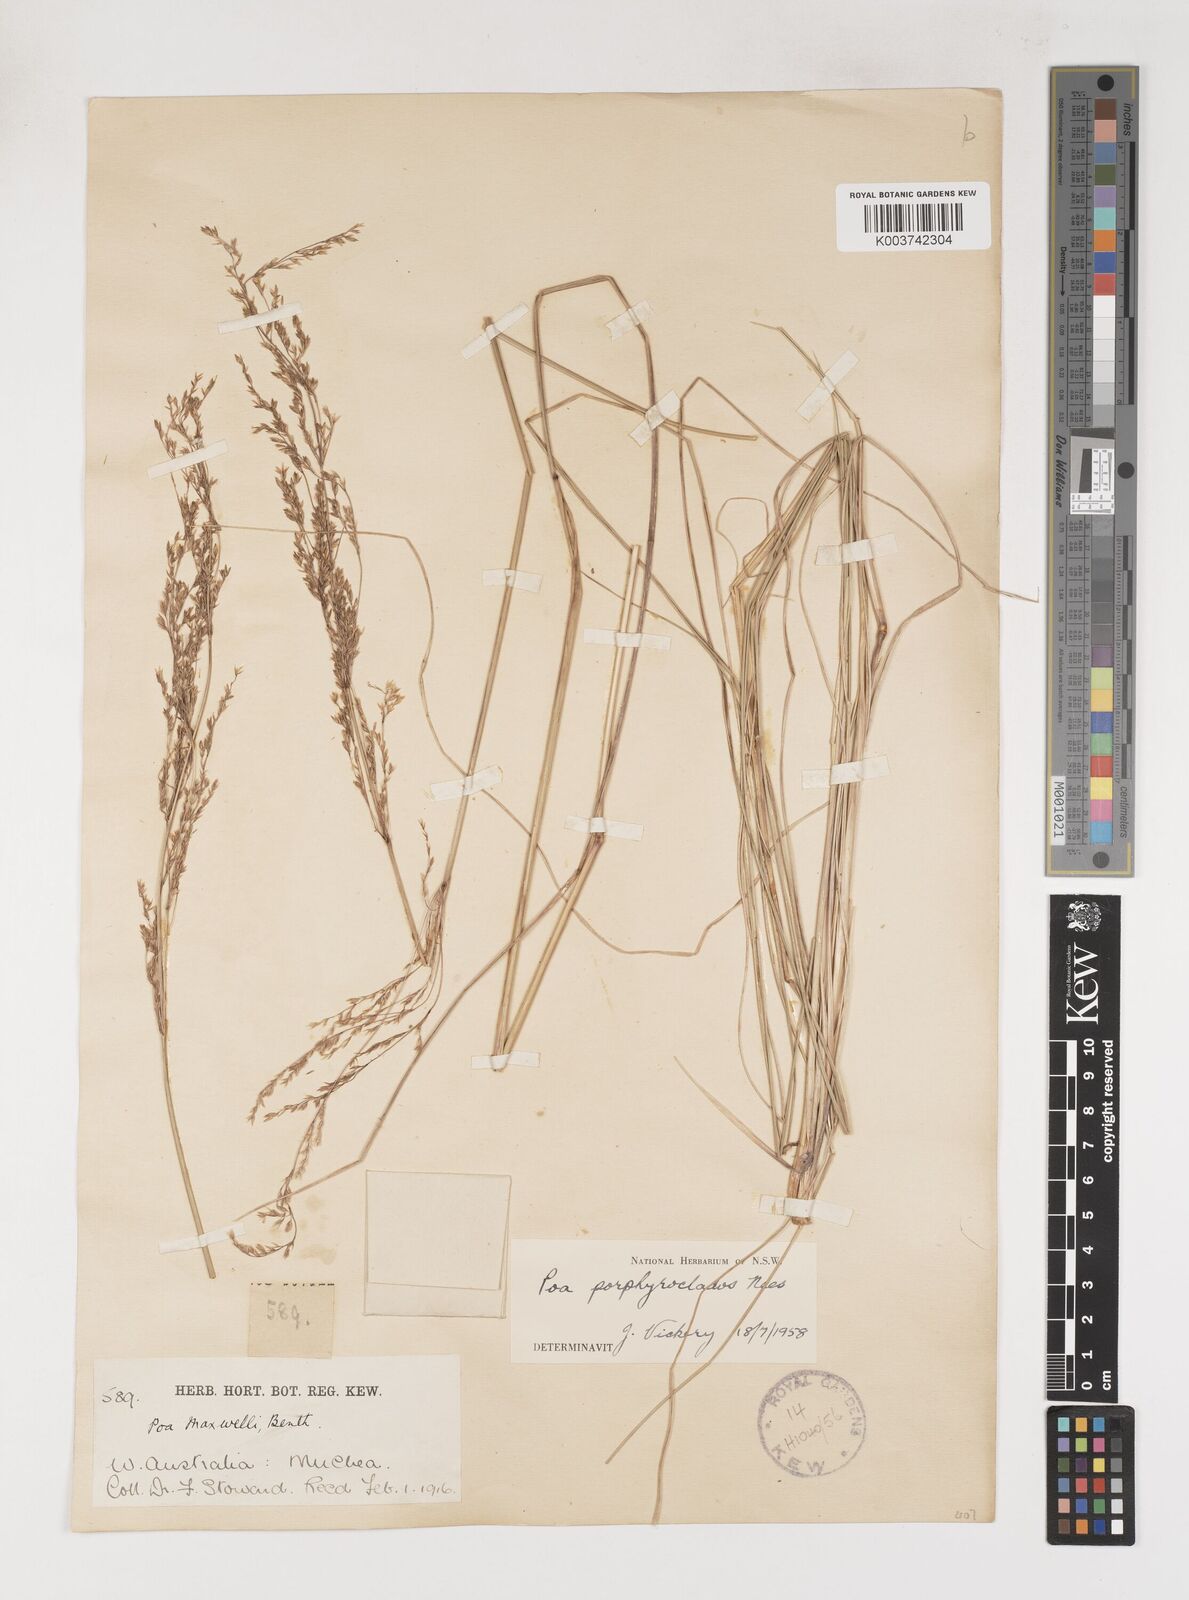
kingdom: Plantae
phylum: Tracheophyta
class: Liliopsida
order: Poales
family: Poaceae
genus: Poa
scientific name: Poa porphyroclados
